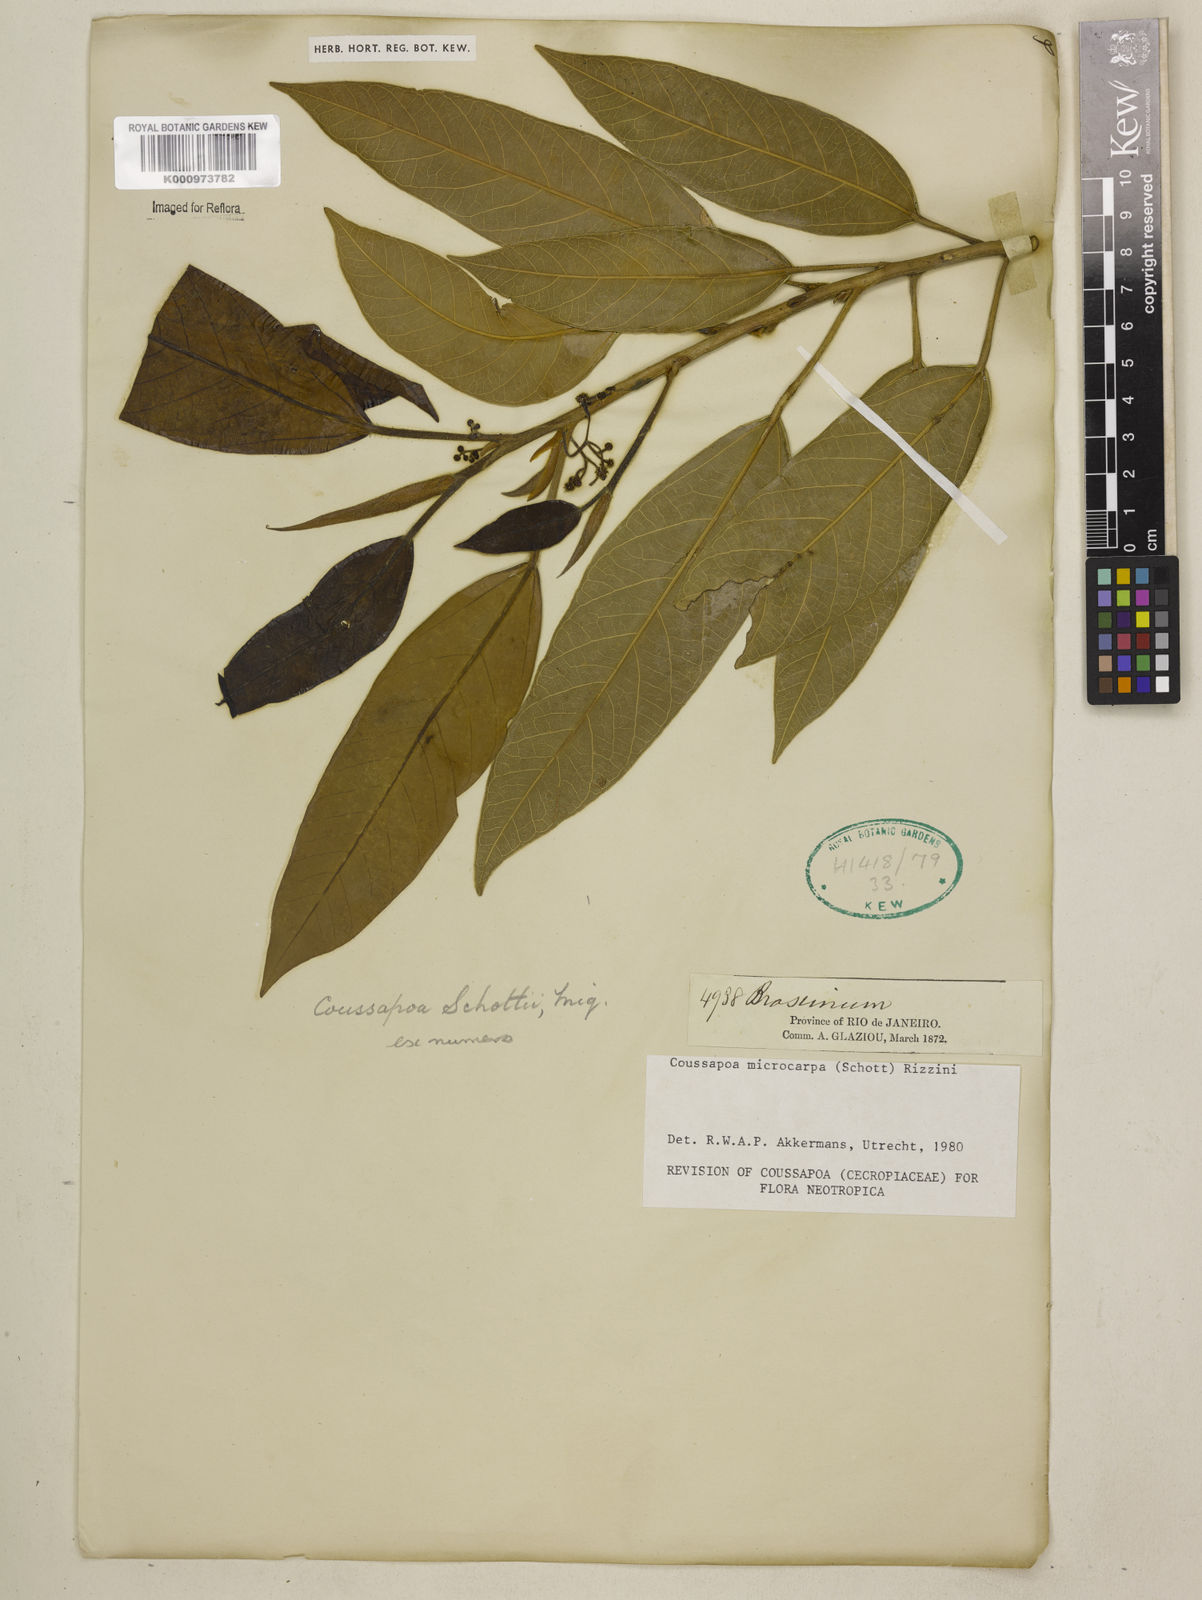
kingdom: Plantae
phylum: Tracheophyta
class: Magnoliopsida
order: Rosales
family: Urticaceae
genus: Coussapoa
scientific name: Coussapoa microcarpa
